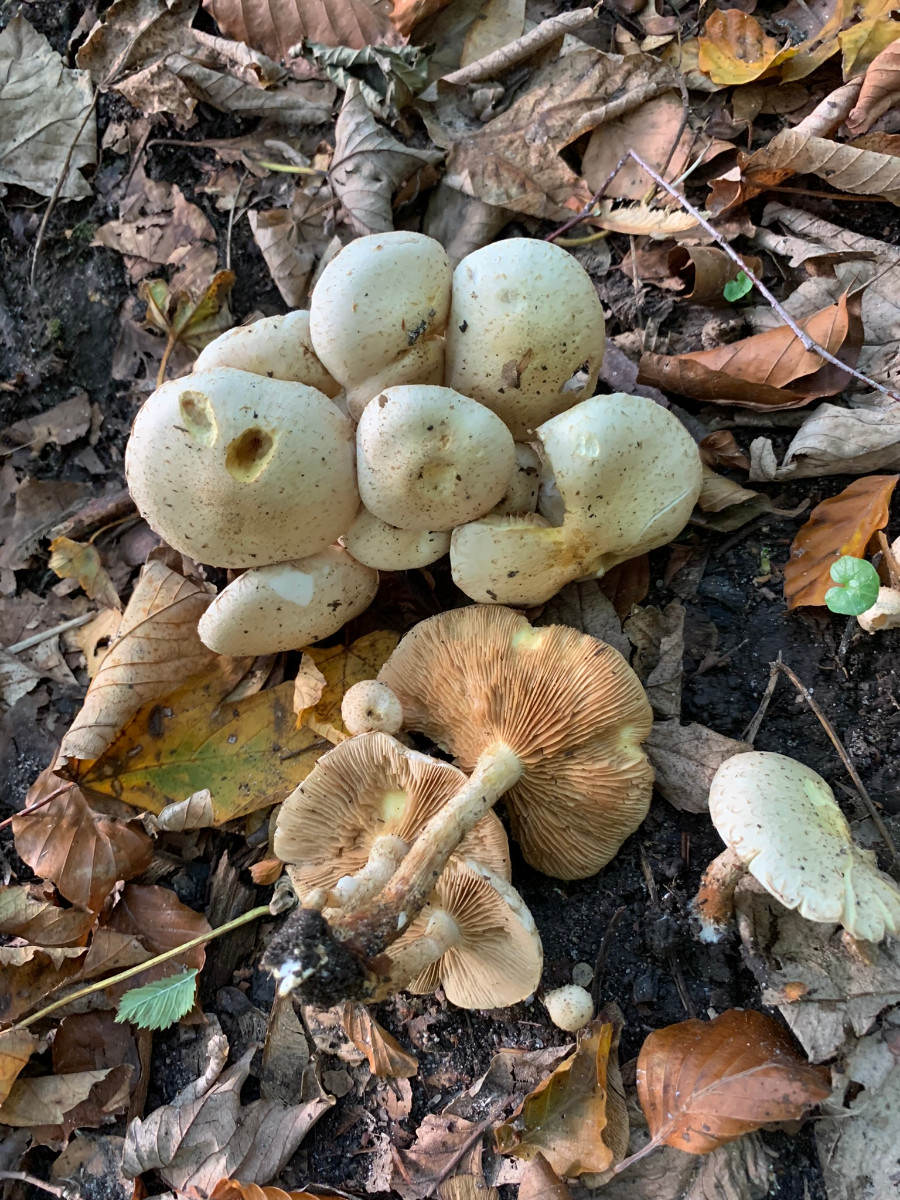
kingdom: Fungi
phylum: Basidiomycota
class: Agaricomycetes
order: Agaricales
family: Strophariaceae
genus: Pholiota
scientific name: Pholiota gummosa
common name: grøngul skælhat
